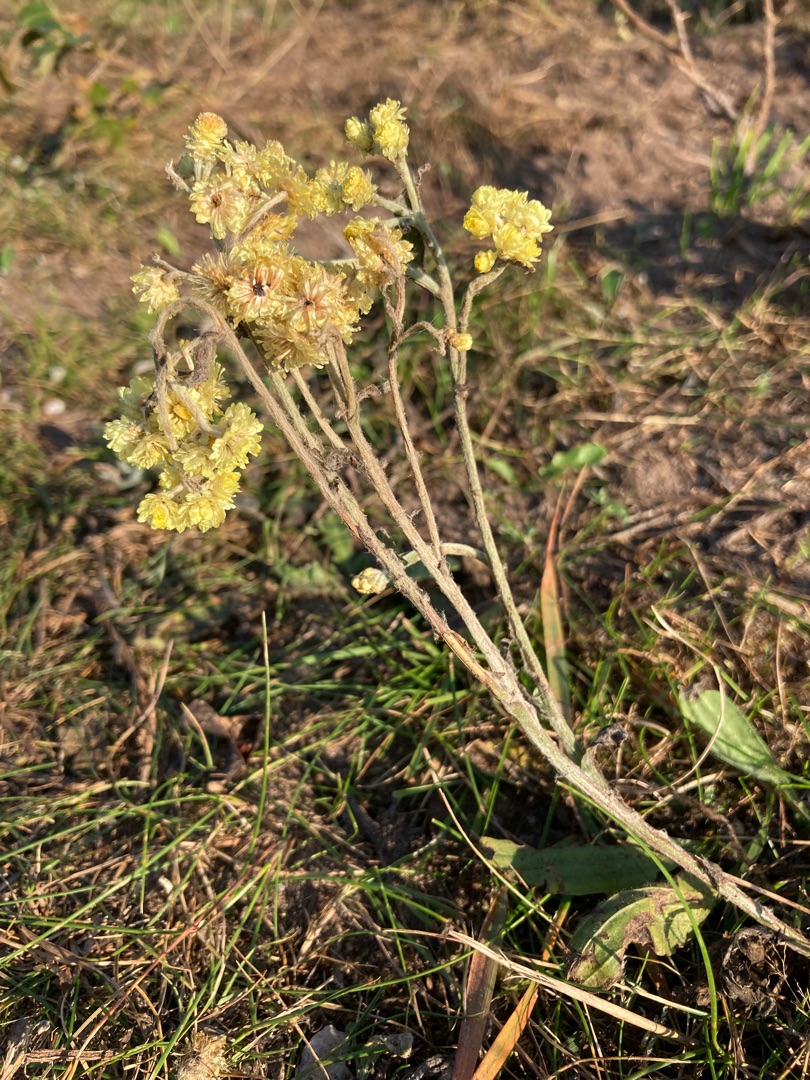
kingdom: Plantae
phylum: Tracheophyta
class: Magnoliopsida
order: Asterales
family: Asteraceae
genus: Helichrysum
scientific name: Helichrysum arenarium
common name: Gul evighedsblomst
